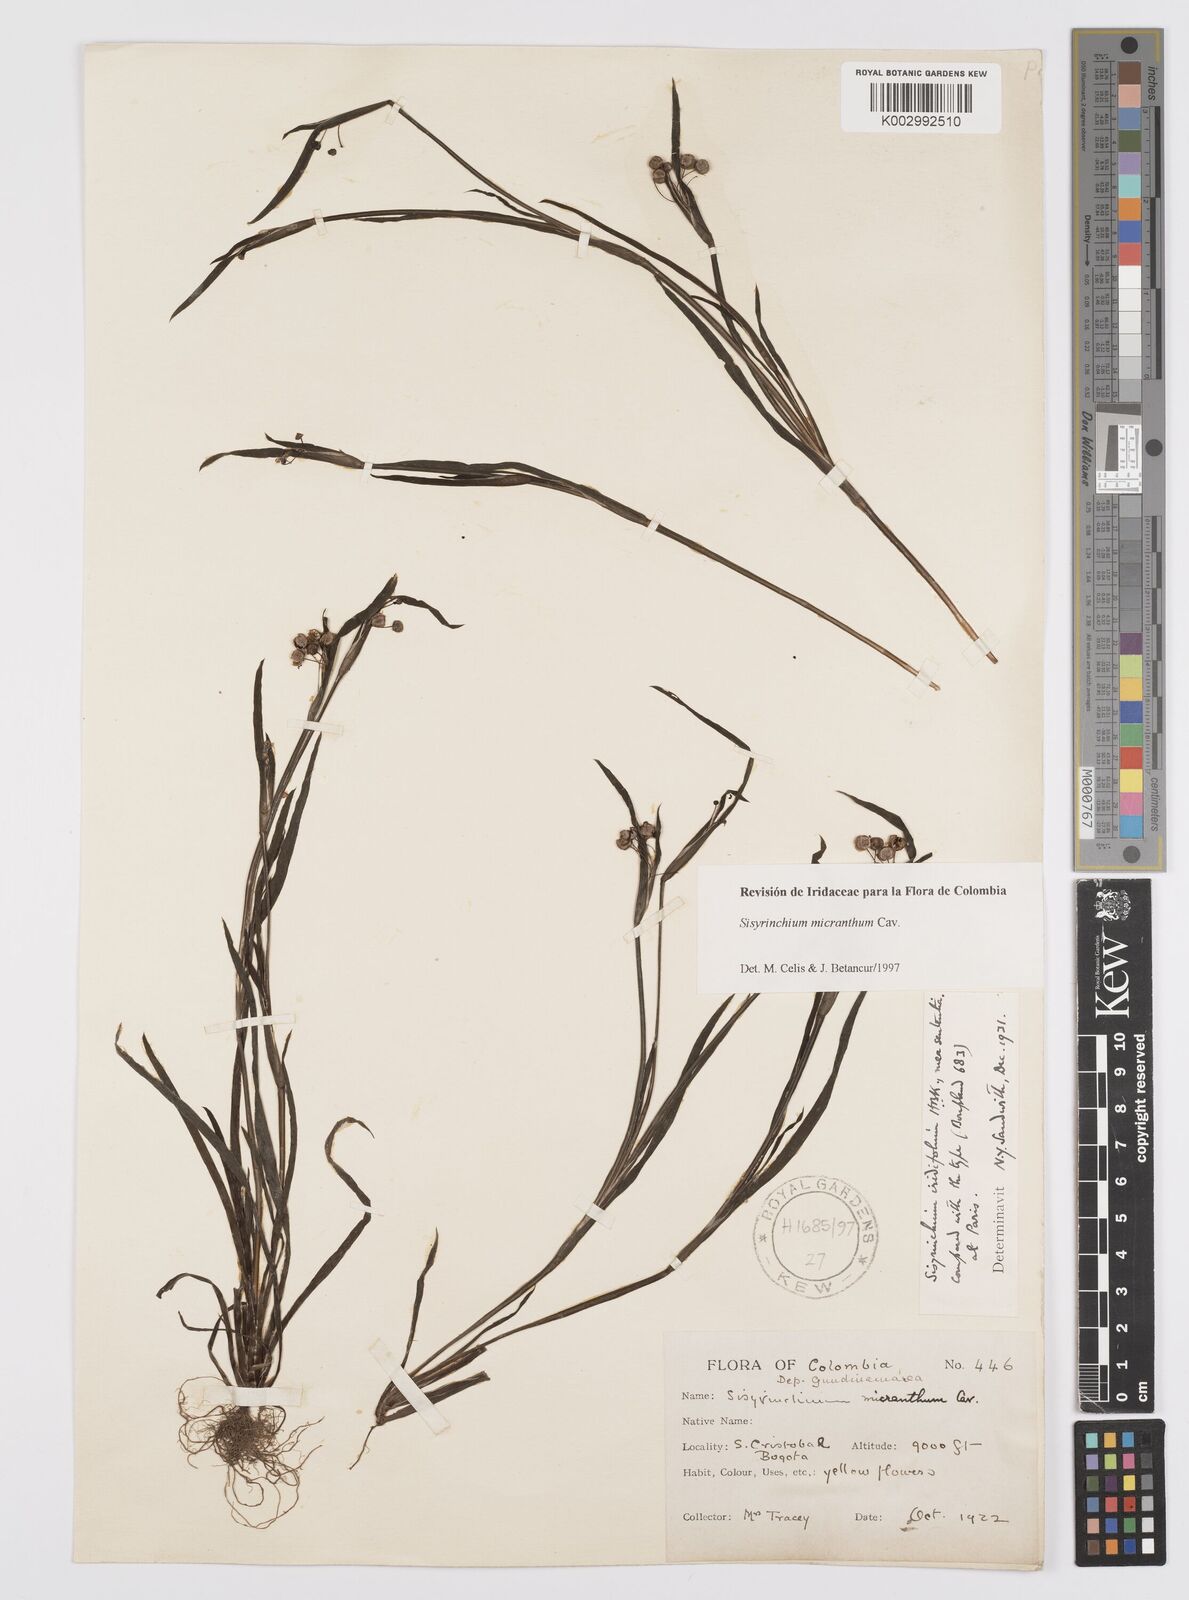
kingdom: Plantae
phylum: Tracheophyta
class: Liliopsida
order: Asparagales
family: Iridaceae
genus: Sisyrinchium
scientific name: Sisyrinchium micranthum
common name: Bermuda pigroot
